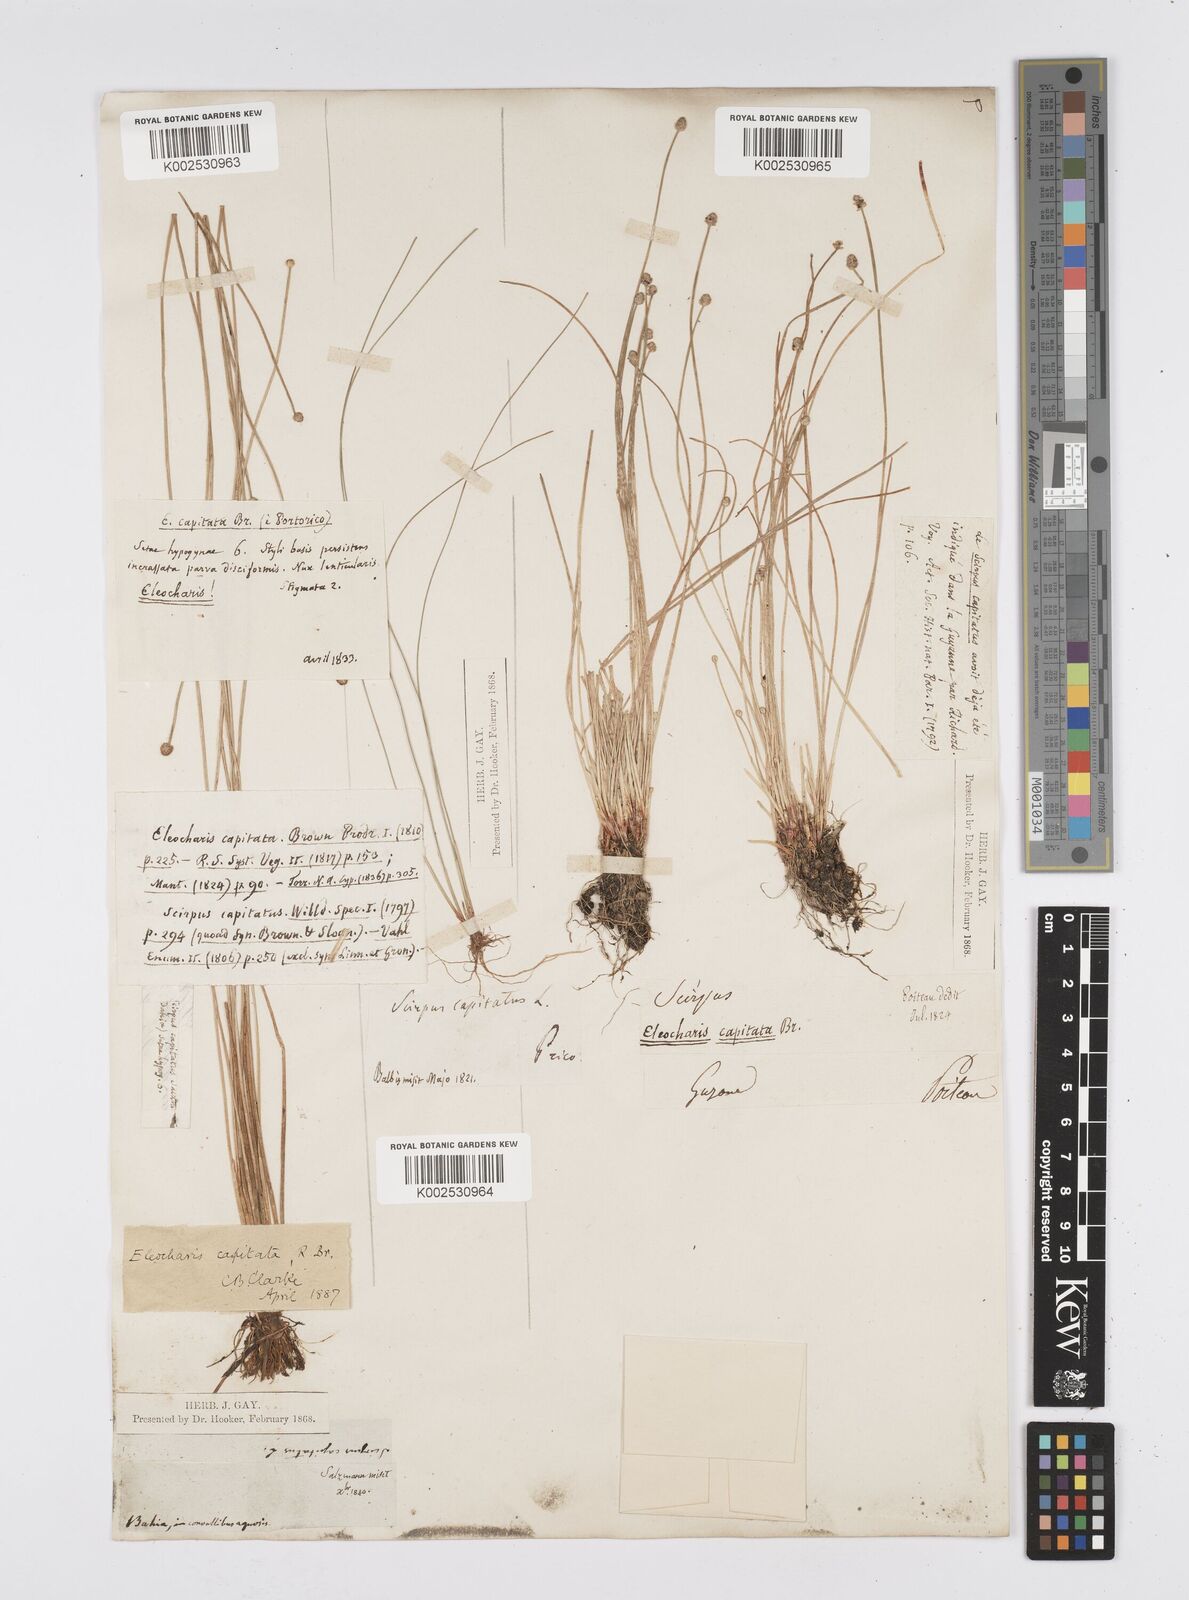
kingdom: Plantae
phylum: Tracheophyta
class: Liliopsida
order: Poales
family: Cyperaceae
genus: Eleocharis
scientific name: Eleocharis geniculata
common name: Canada spikesedge
